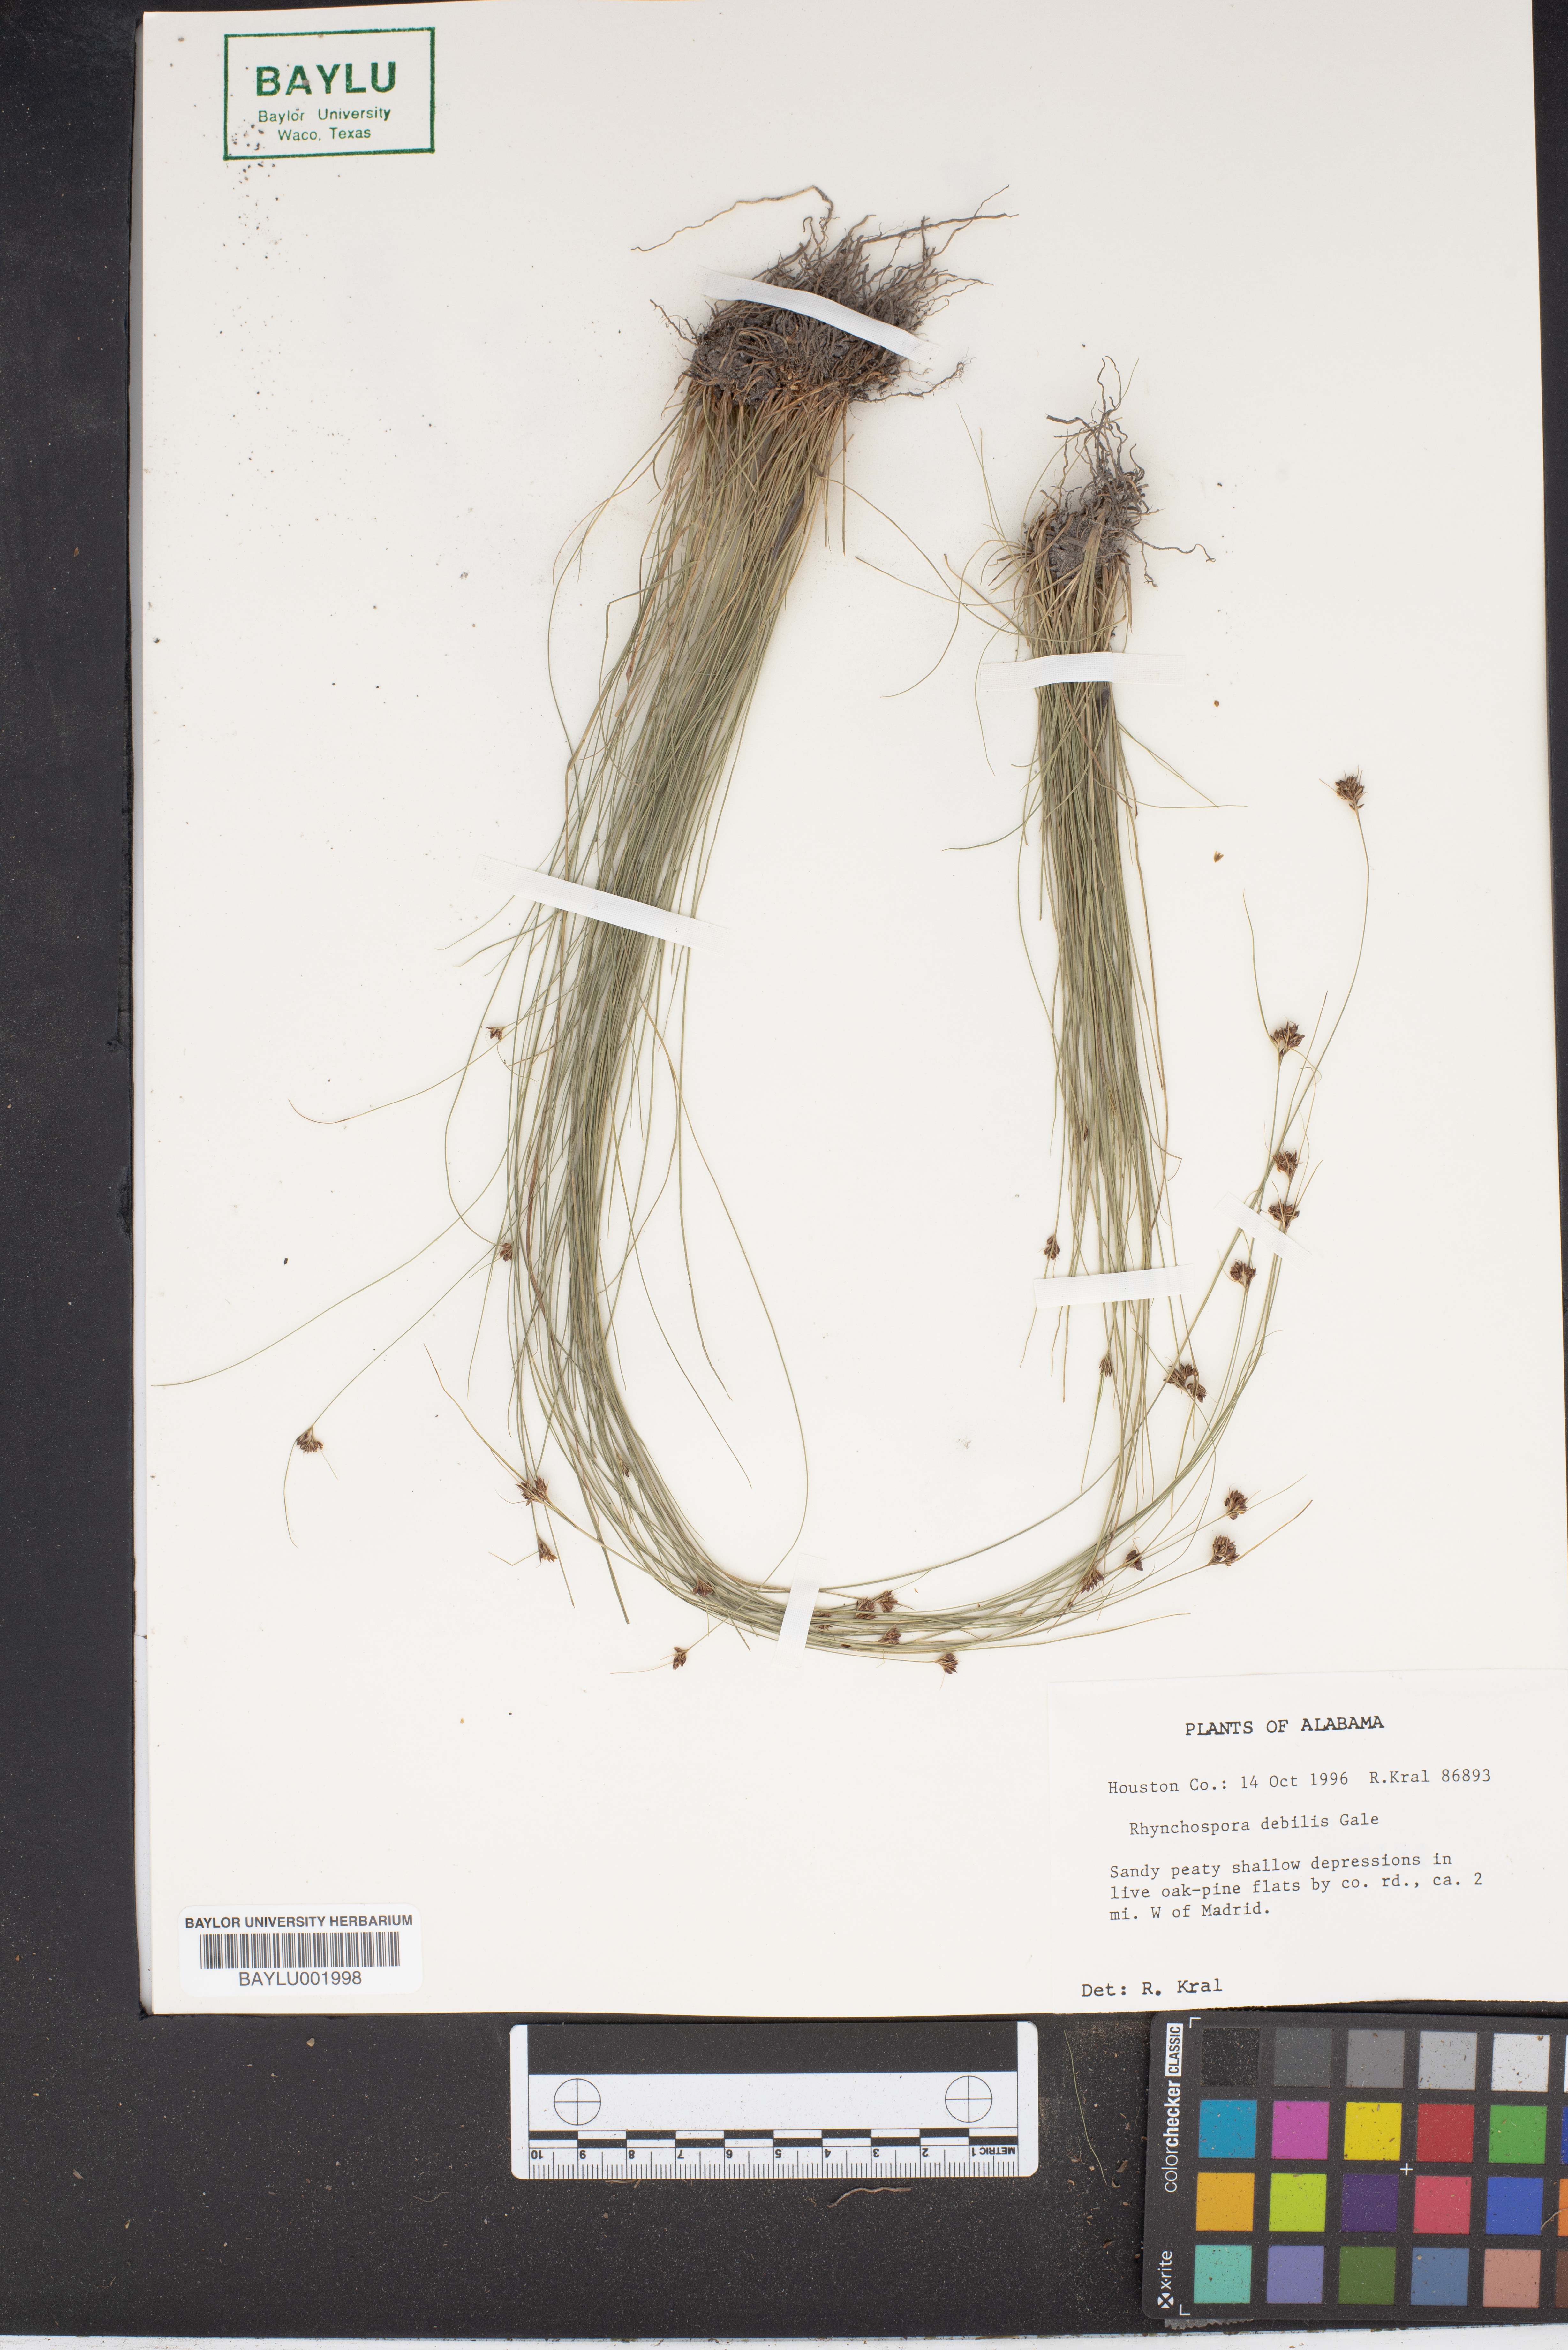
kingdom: Plantae
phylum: Tracheophyta
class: Liliopsida
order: Poales
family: Cyperaceae
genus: Rhynchospora
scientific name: Rhynchospora debilis
